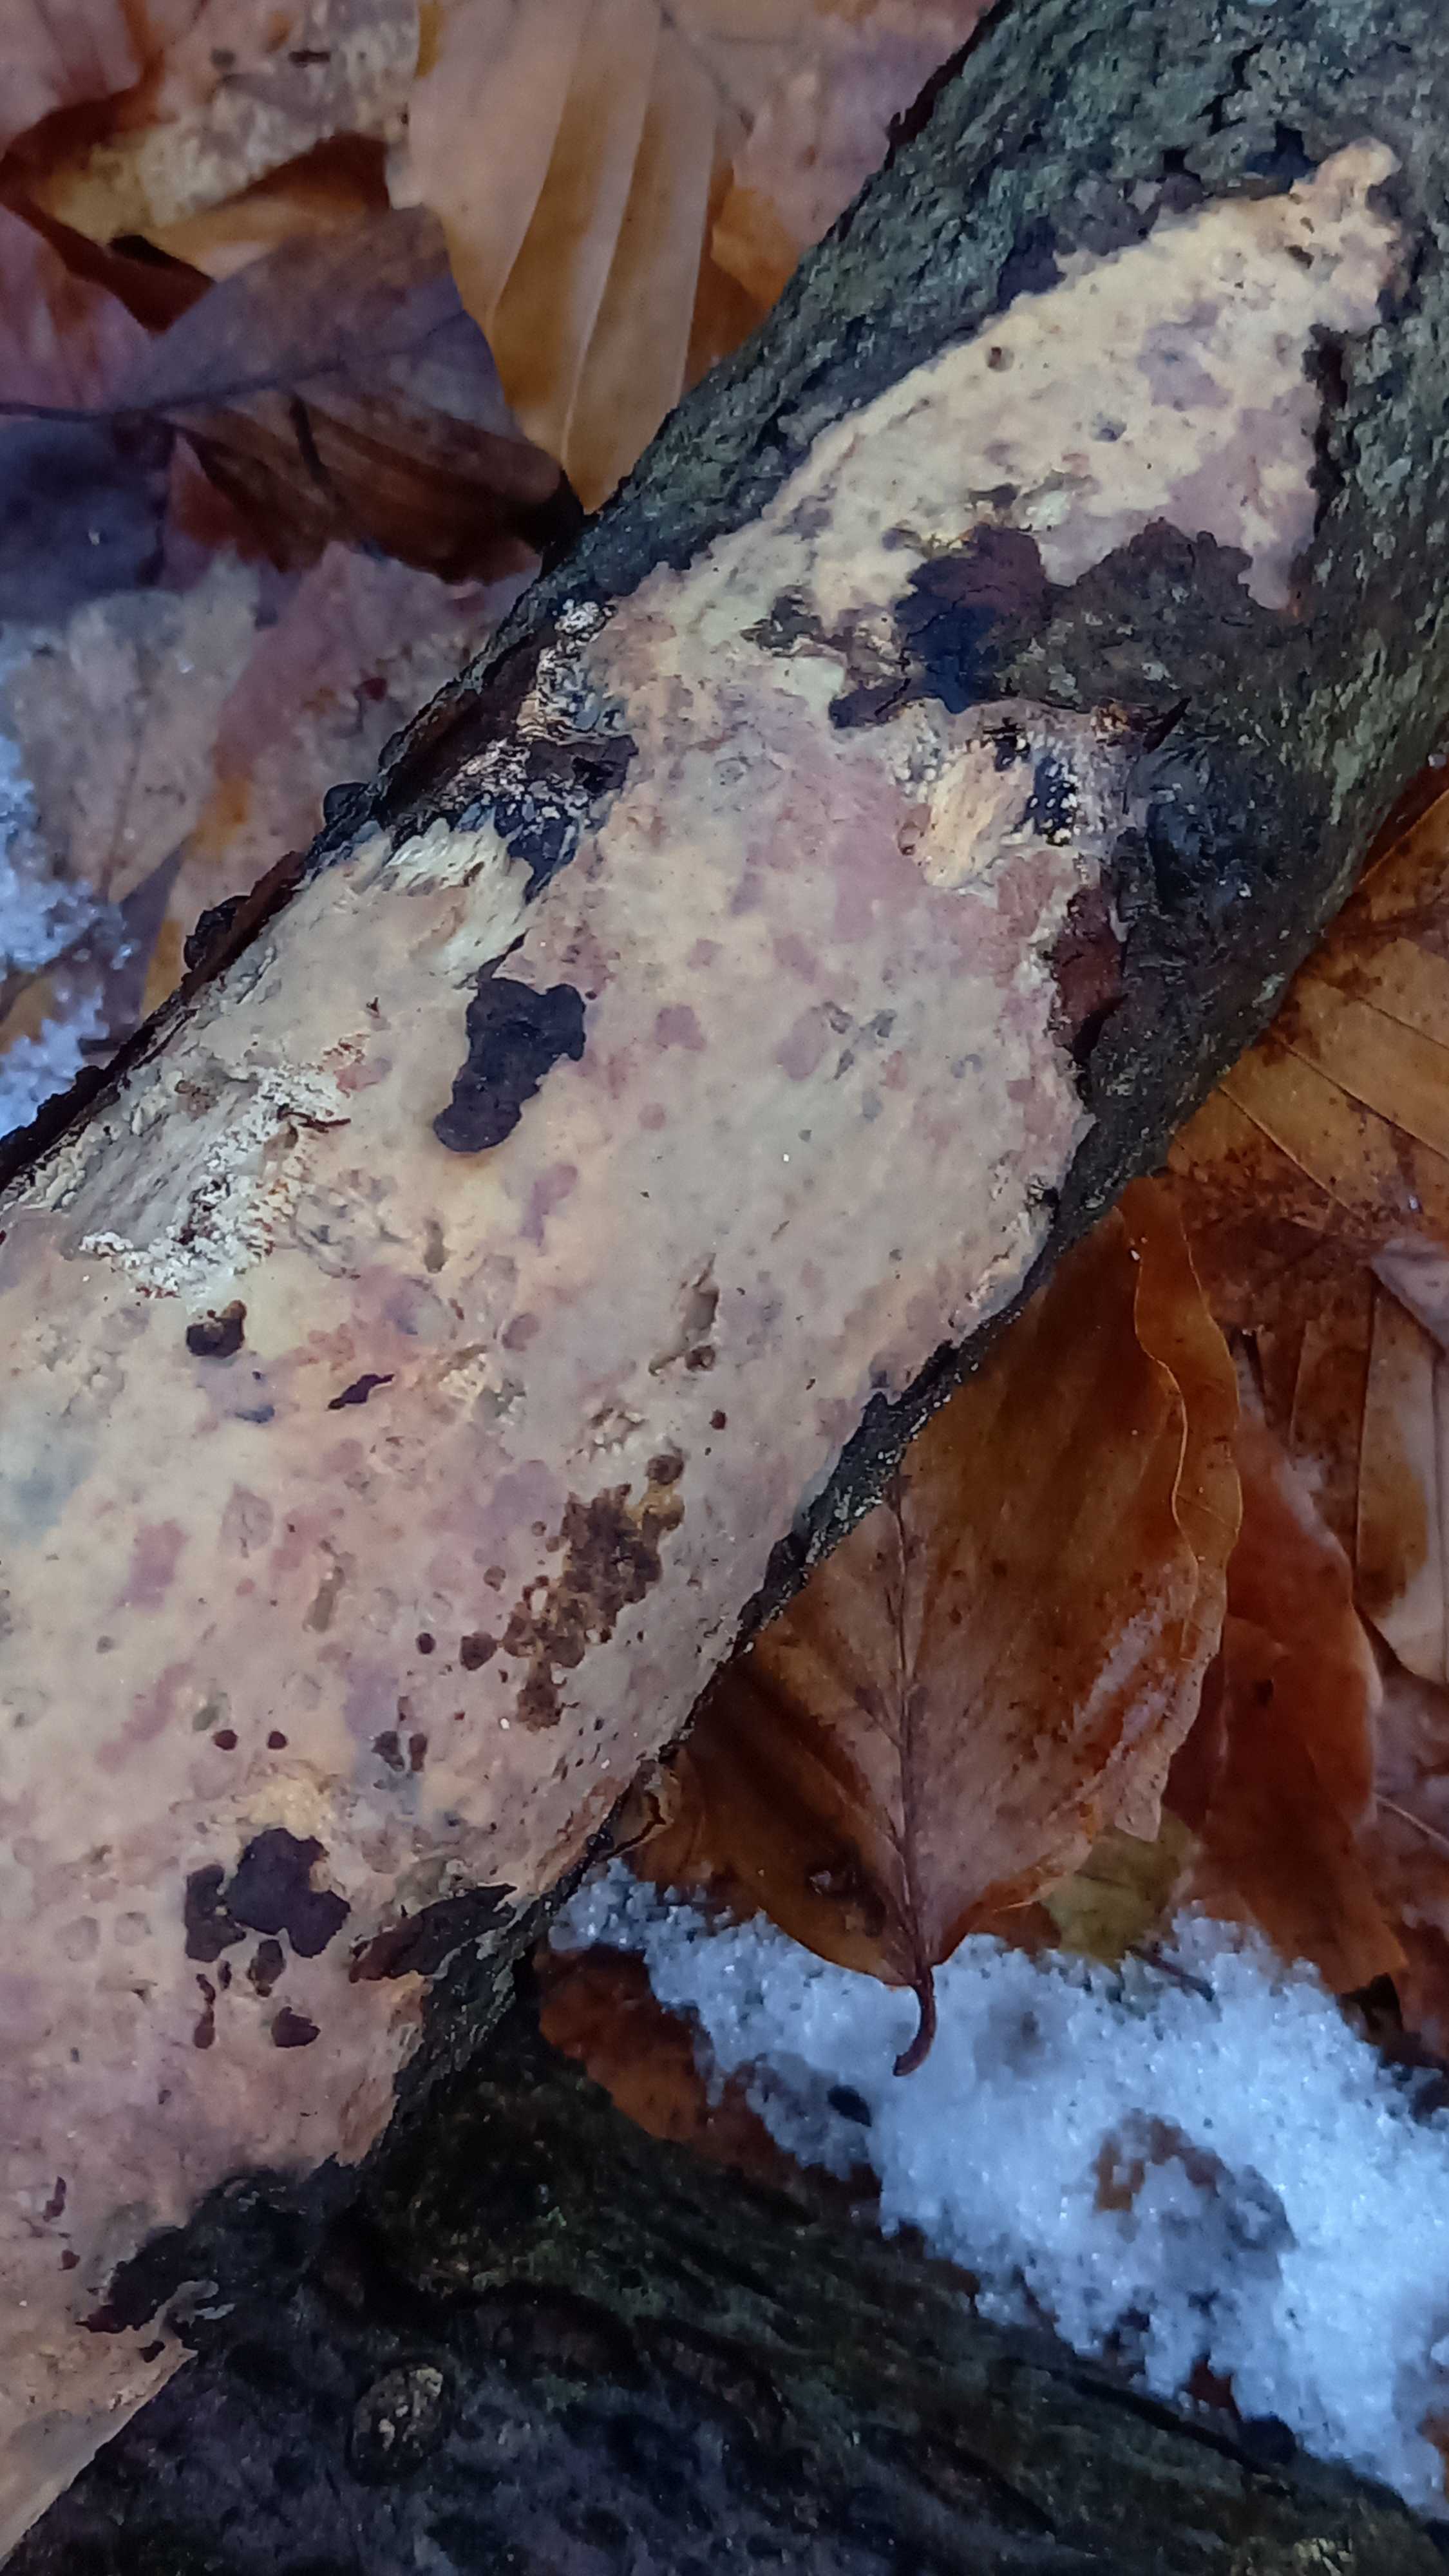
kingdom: Fungi
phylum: Basidiomycota
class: Agaricomycetes
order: Corticiales
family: Vuilleminiaceae
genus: Vuilleminia
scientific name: Vuilleminia comedens
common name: almindelig barksprænger
